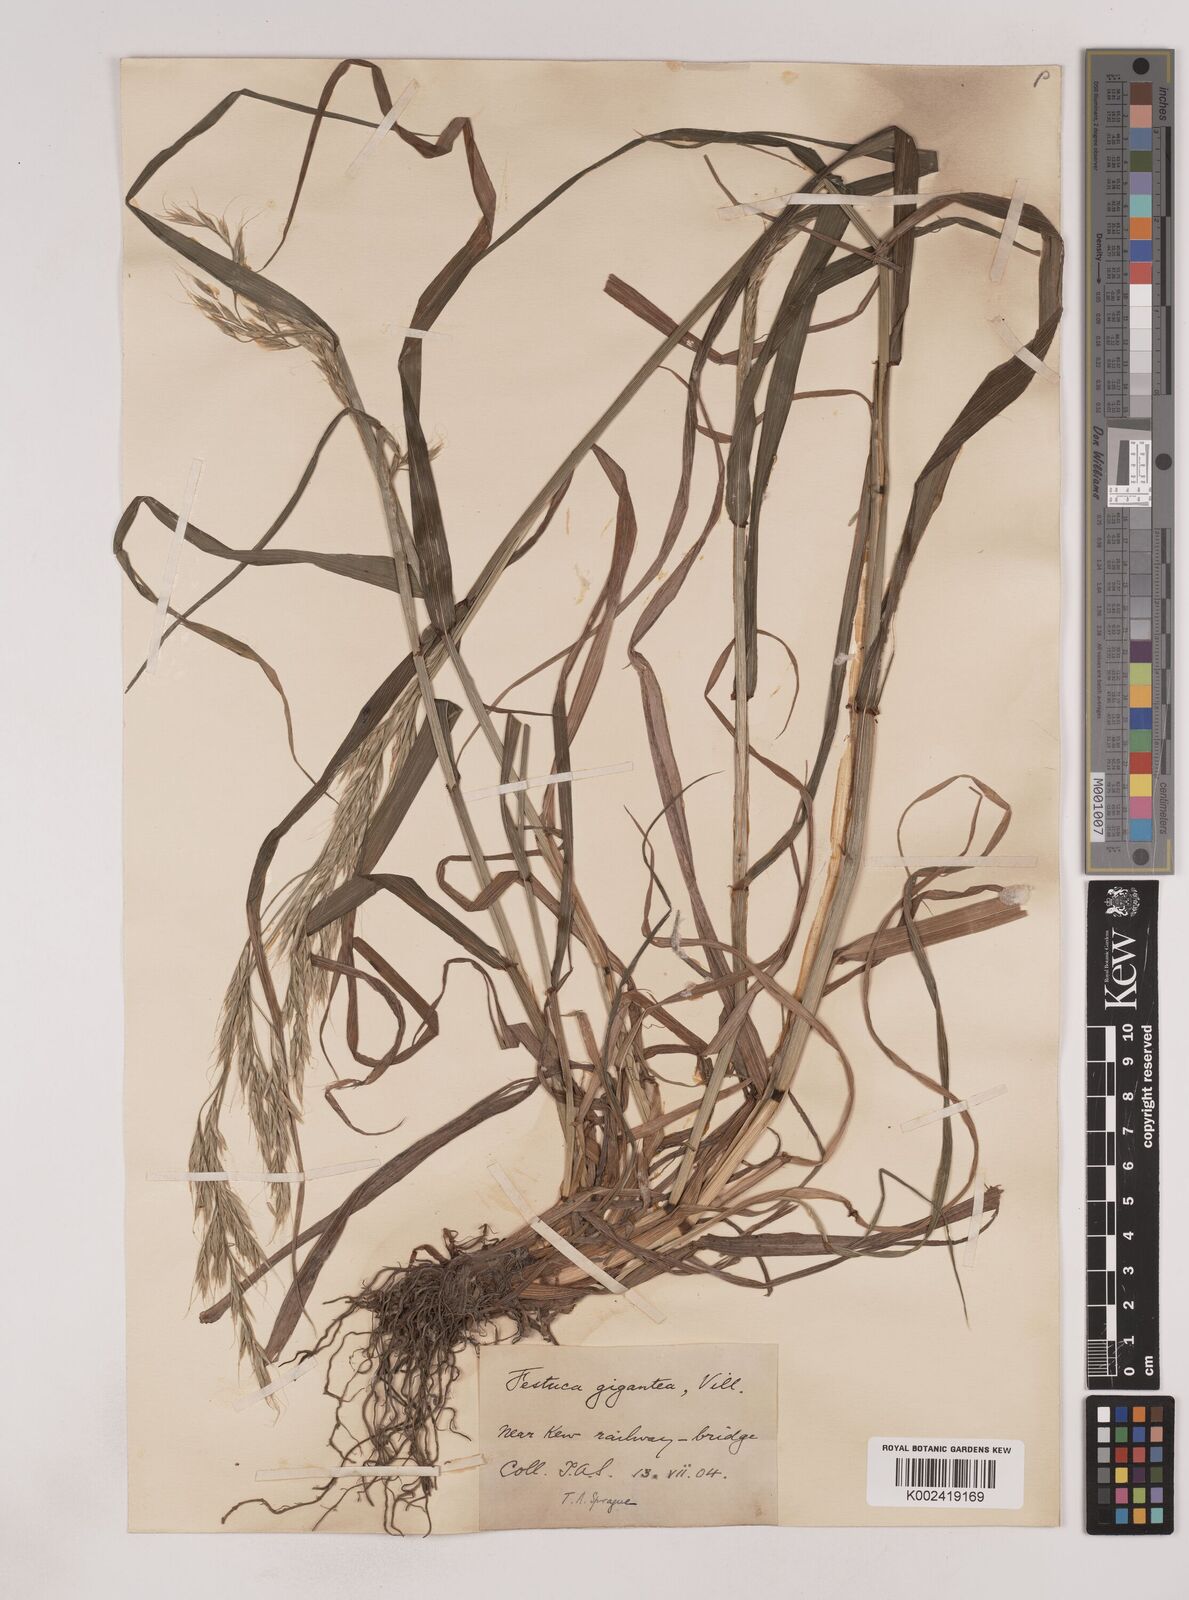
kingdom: Plantae
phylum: Tracheophyta
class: Liliopsida
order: Poales
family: Poaceae
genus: Lolium
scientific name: Lolium giganteum
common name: Giant fescue
